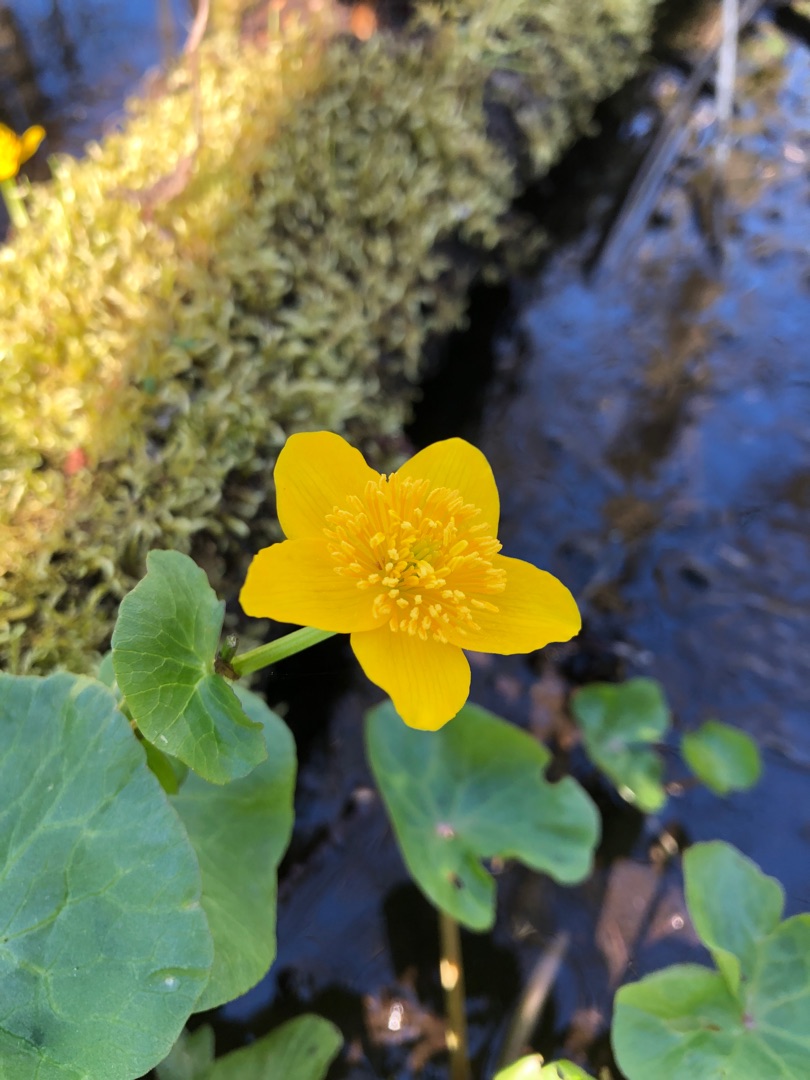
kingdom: Plantae
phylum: Tracheophyta
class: Magnoliopsida
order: Ranunculales
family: Ranunculaceae
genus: Caltha
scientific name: Caltha palustris
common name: Eng-kabbeleje
